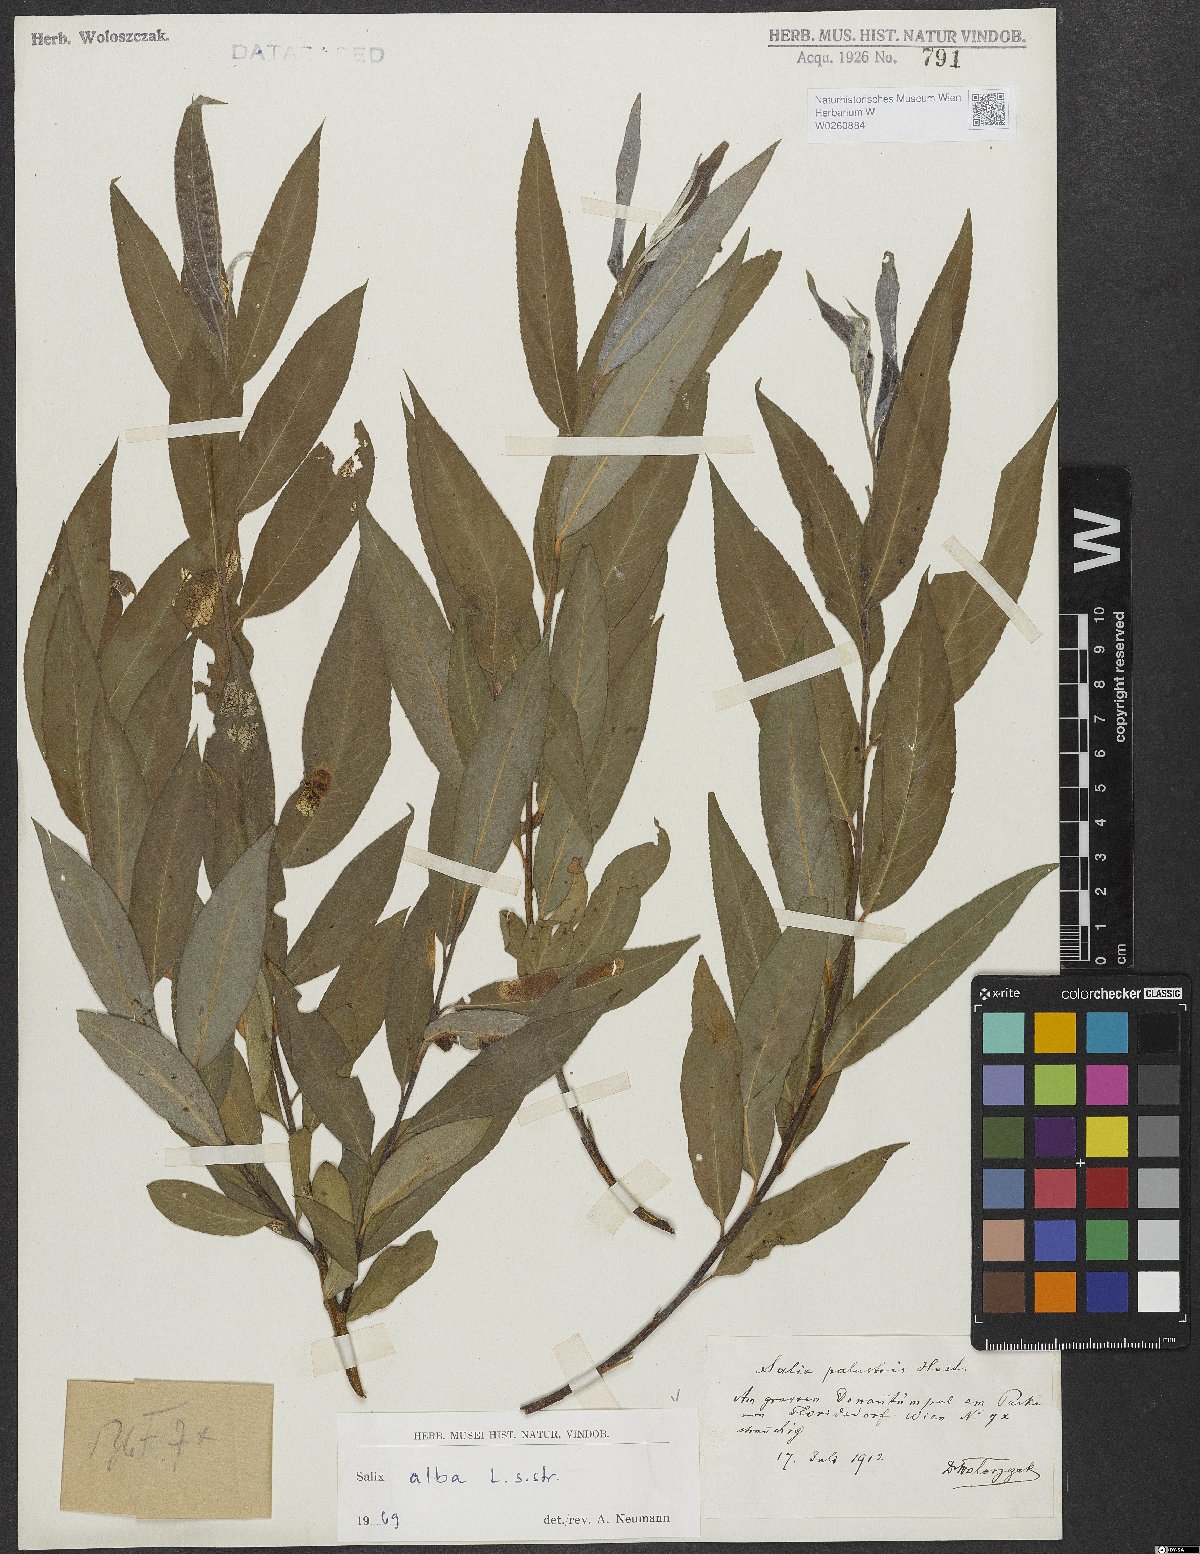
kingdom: Plantae
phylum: Tracheophyta
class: Magnoliopsida
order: Malpighiales
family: Salicaceae
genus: Salix
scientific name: Salix alba
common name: White willow
